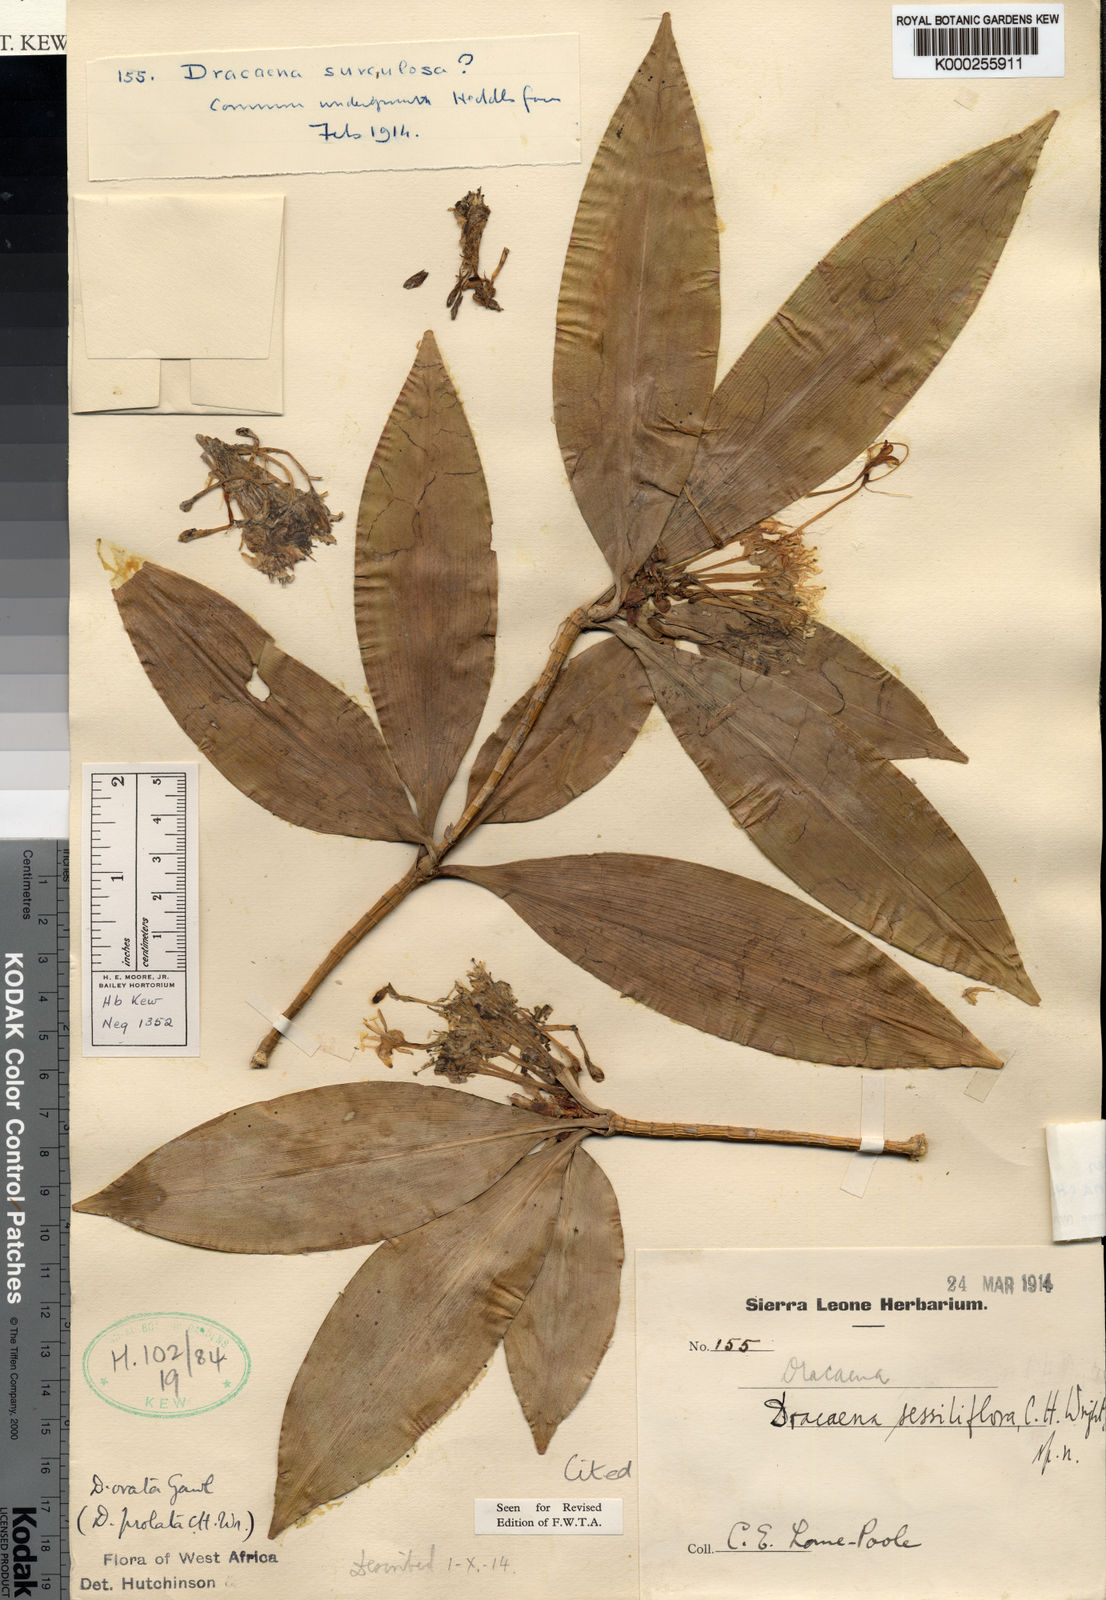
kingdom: Plantae
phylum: Tracheophyta
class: Liliopsida
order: Asparagales
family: Asparagaceae
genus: Dracaena
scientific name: Dracaena ovata
